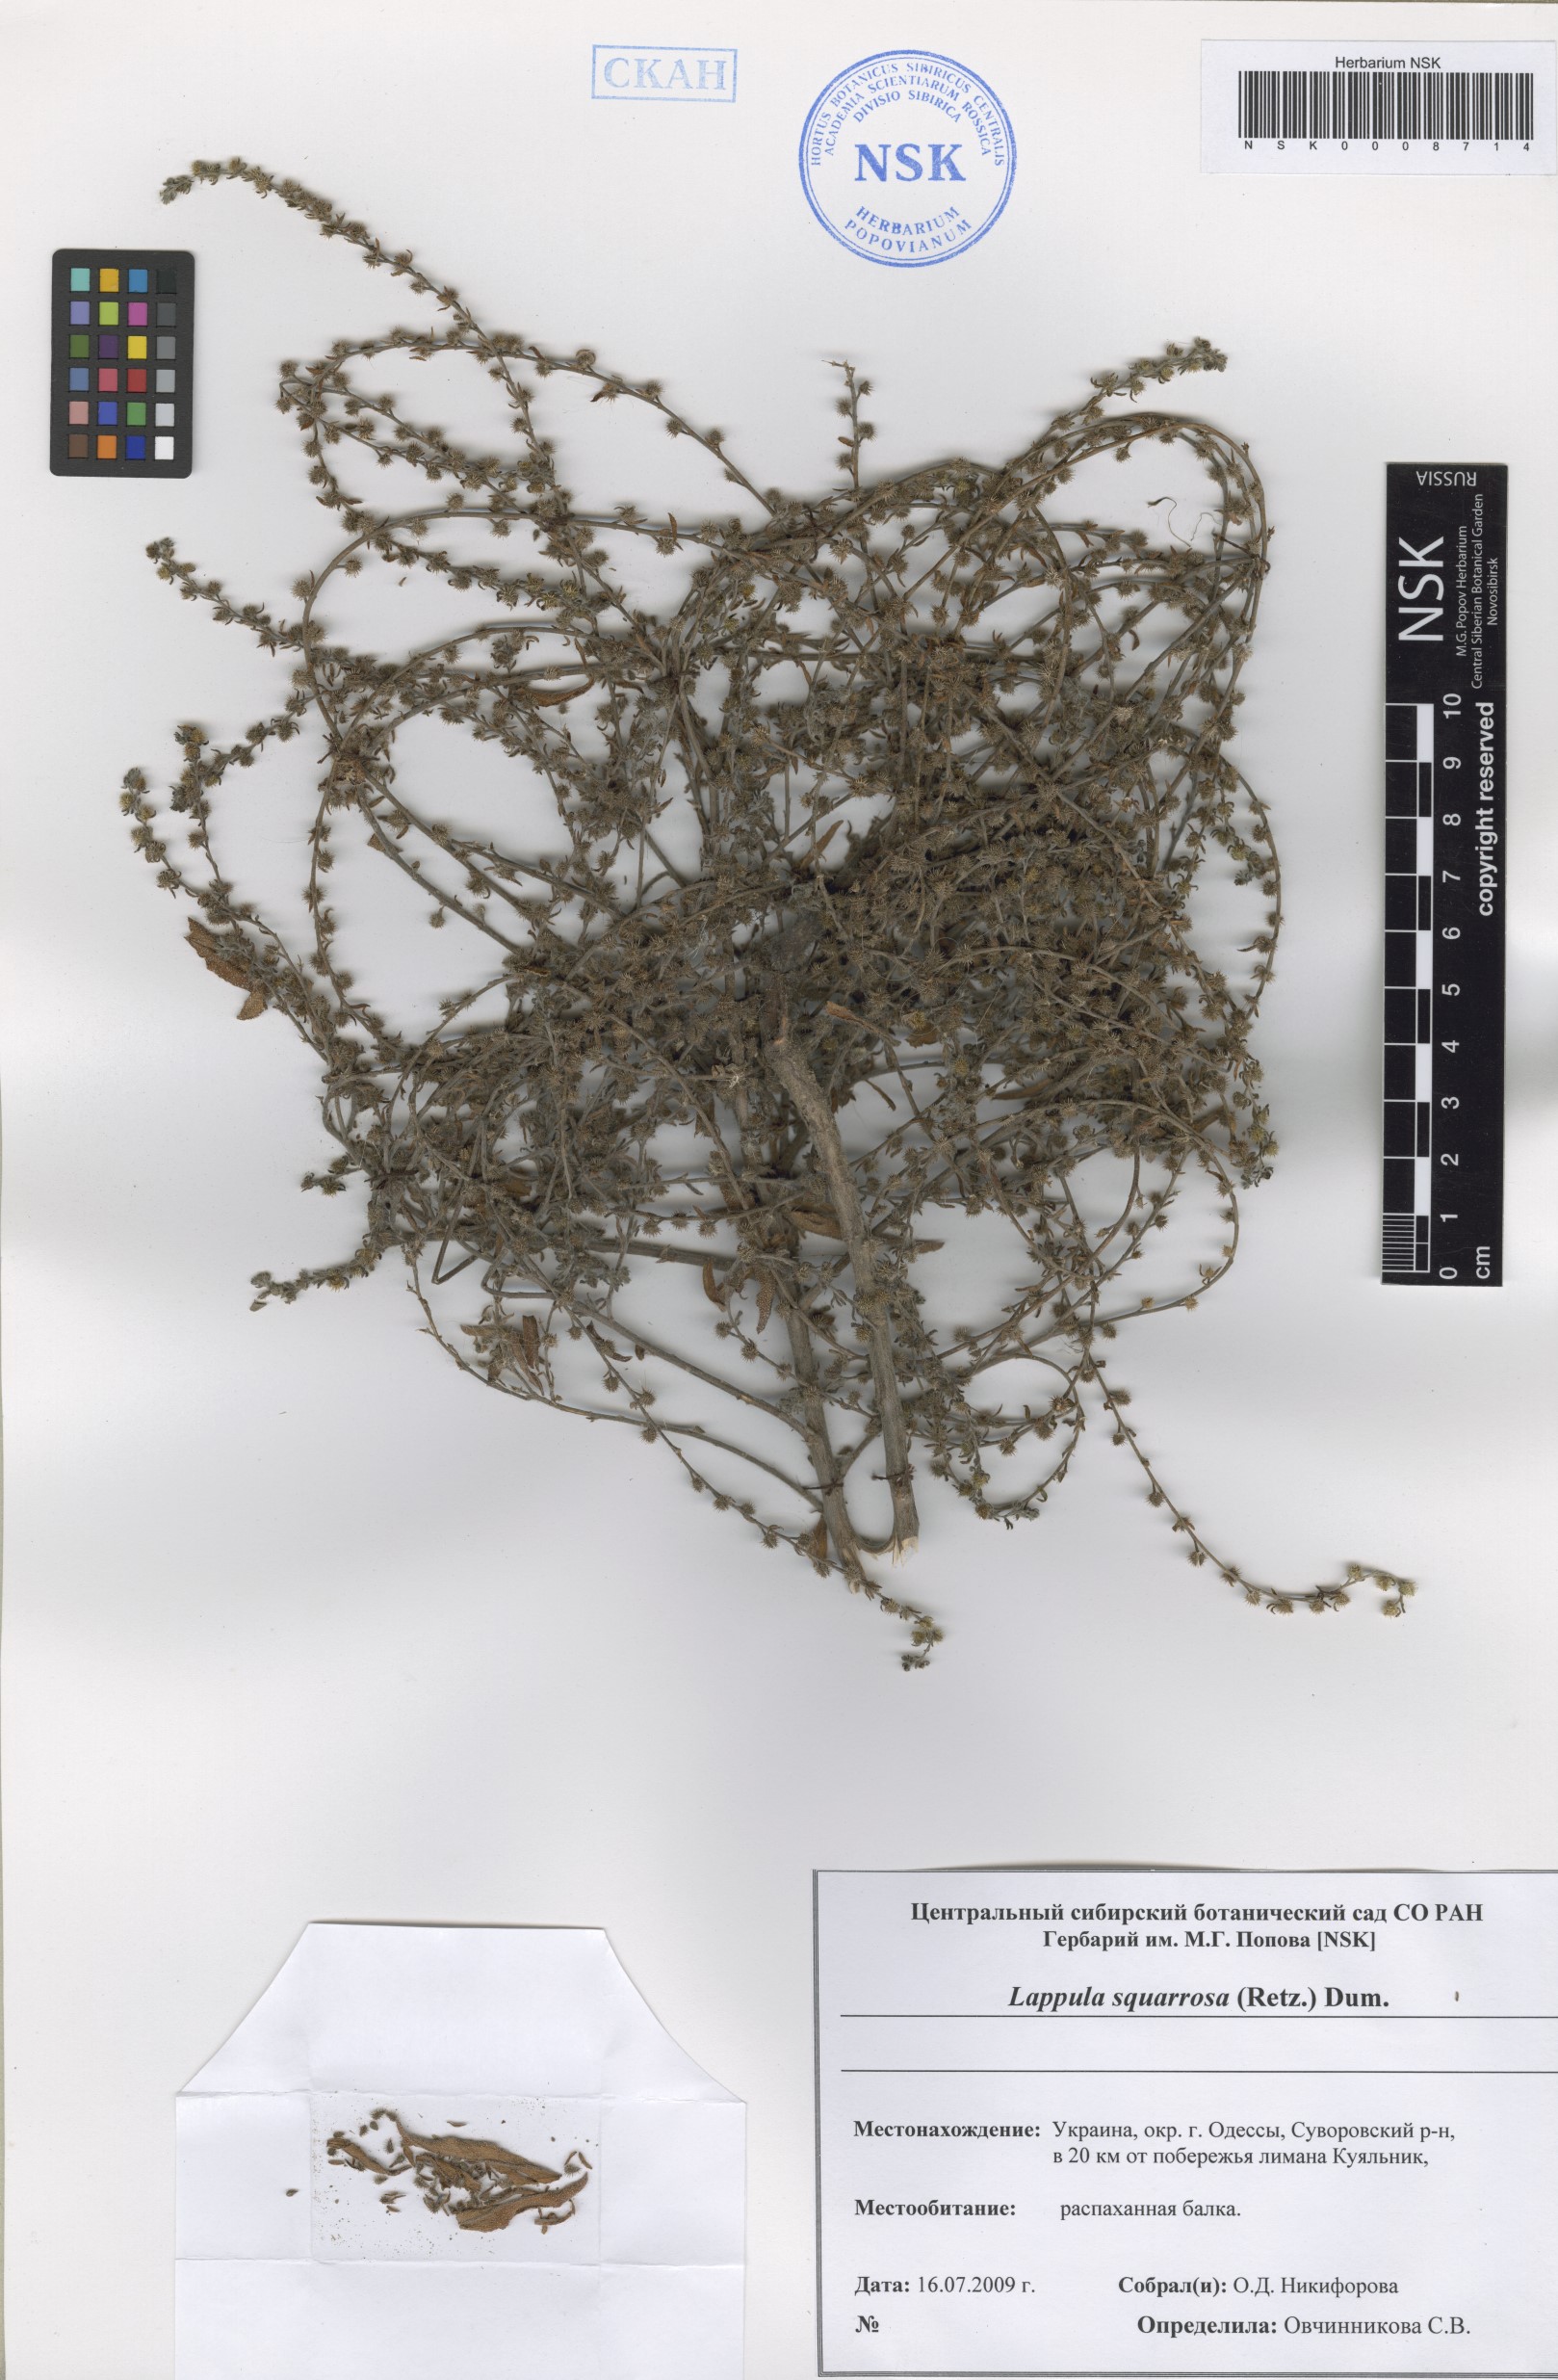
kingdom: Plantae
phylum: Tracheophyta
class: Magnoliopsida
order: Boraginales
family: Boraginaceae
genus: Lappula
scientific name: Lappula squarrosa
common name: European stickseed
